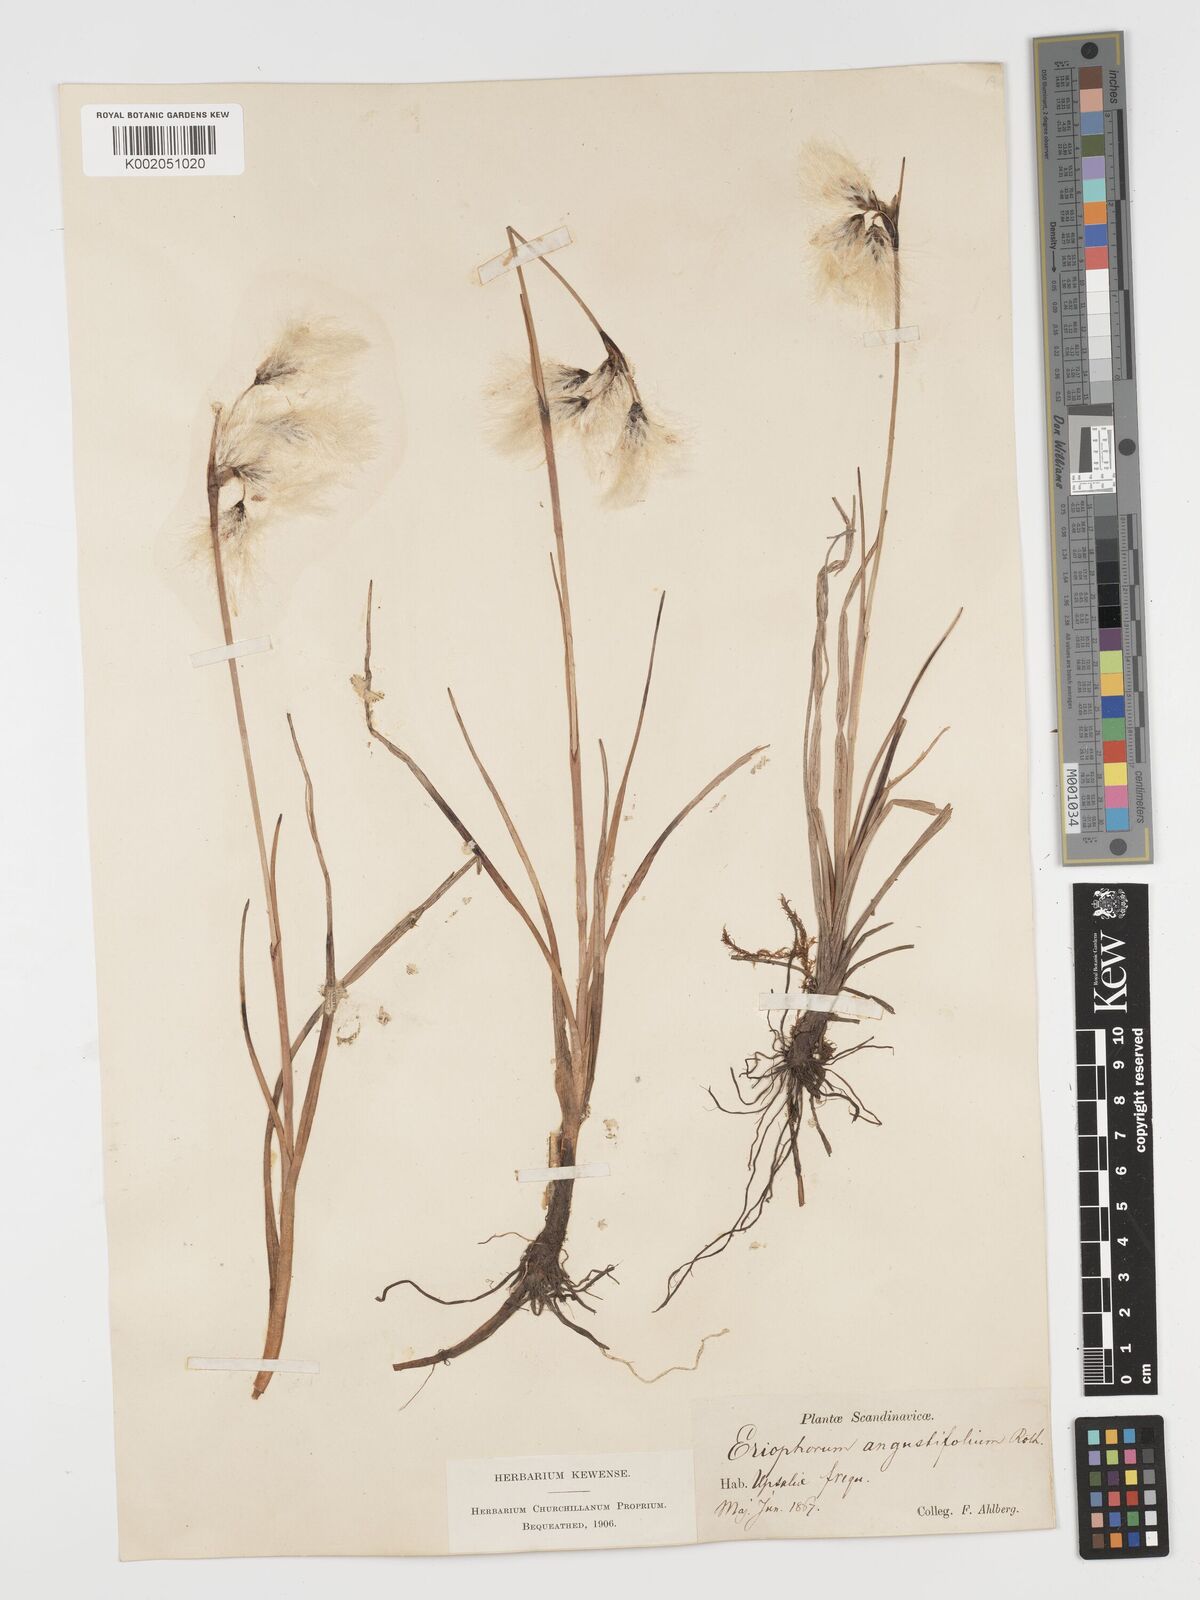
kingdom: Plantae
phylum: Tracheophyta
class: Liliopsida
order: Poales
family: Cyperaceae
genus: Eriophorum
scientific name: Eriophorum angustifolium
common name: Common cottongrass
